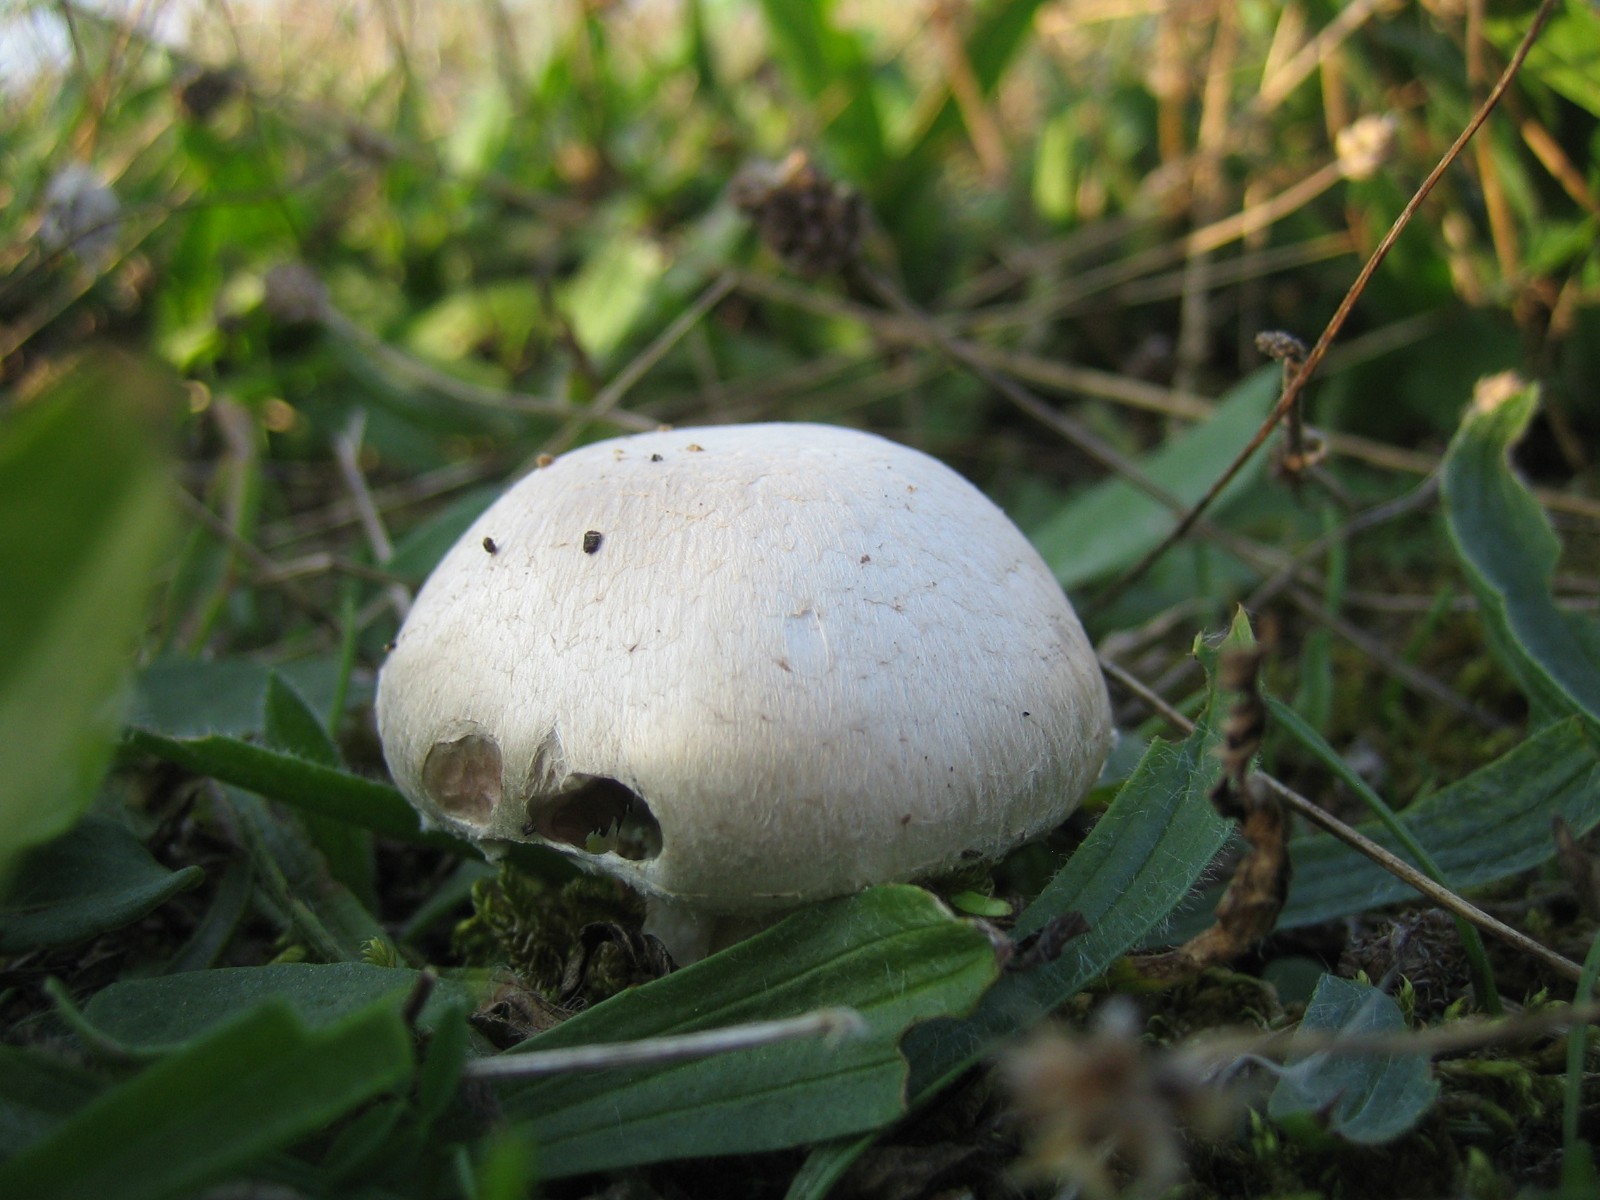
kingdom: Fungi
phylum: Basidiomycota
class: Agaricomycetes
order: Agaricales
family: Agaricaceae
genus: Agaricus
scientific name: Agaricus campestris
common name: mark-champignon
